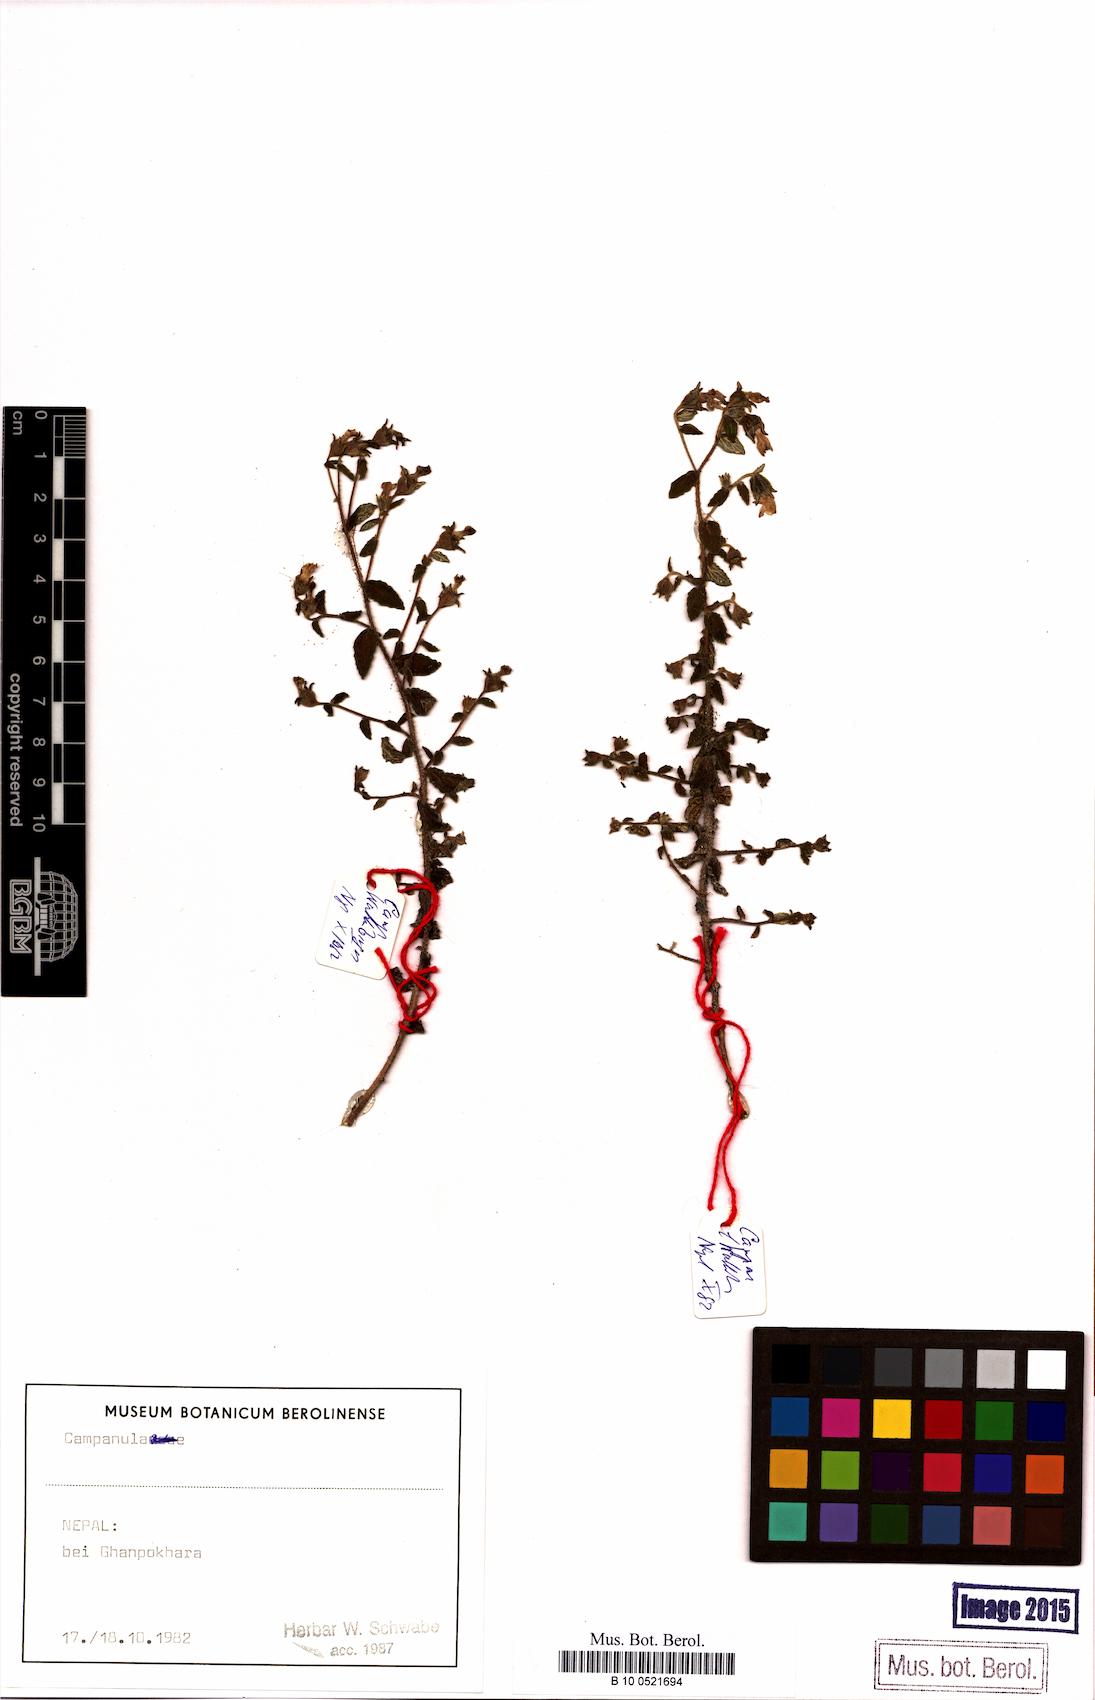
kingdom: Plantae
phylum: Tracheophyta
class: Magnoliopsida
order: Asterales
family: Campanulaceae
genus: Campanula
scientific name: Campanula
